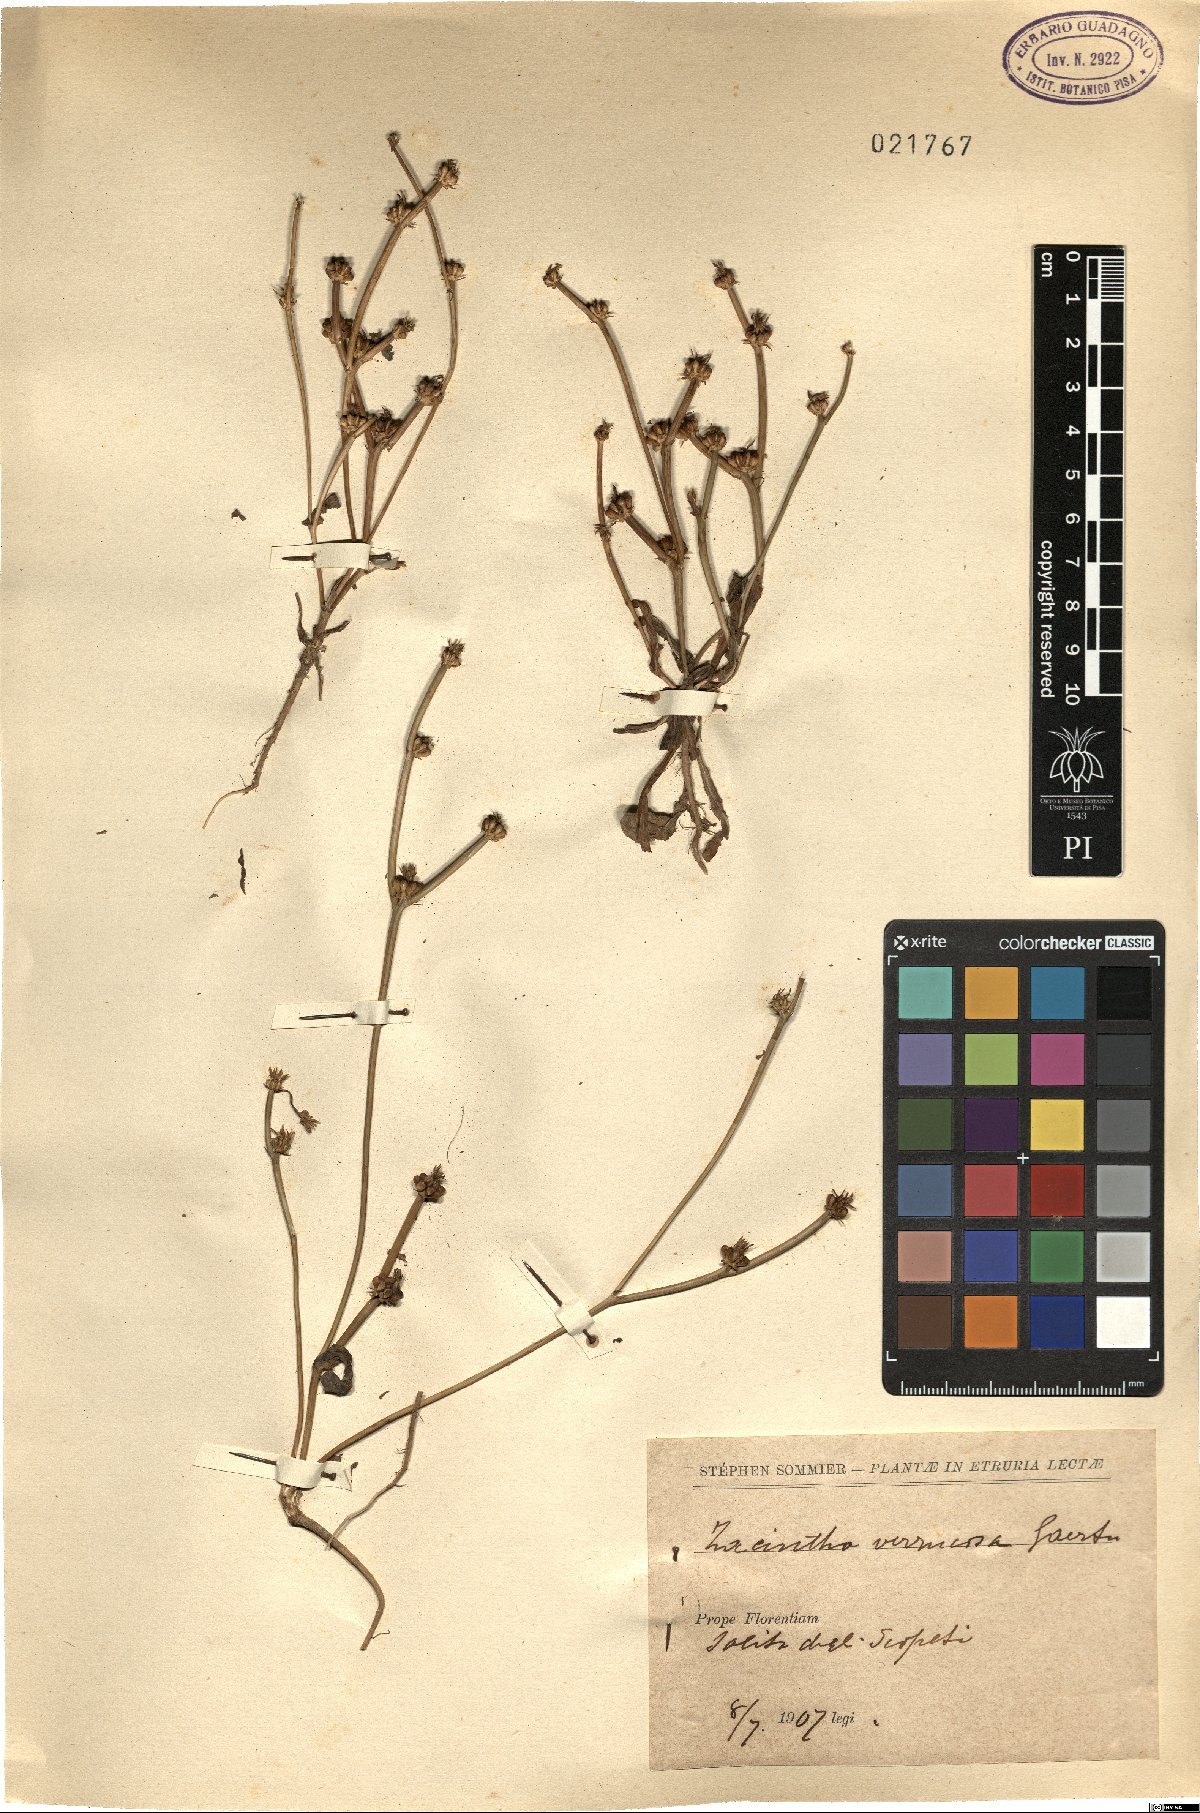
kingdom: Plantae
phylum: Tracheophyta
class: Magnoliopsida
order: Asterales
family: Asteraceae
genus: Crepis
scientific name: Crepis zacintha
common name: Striped hawksbeard
